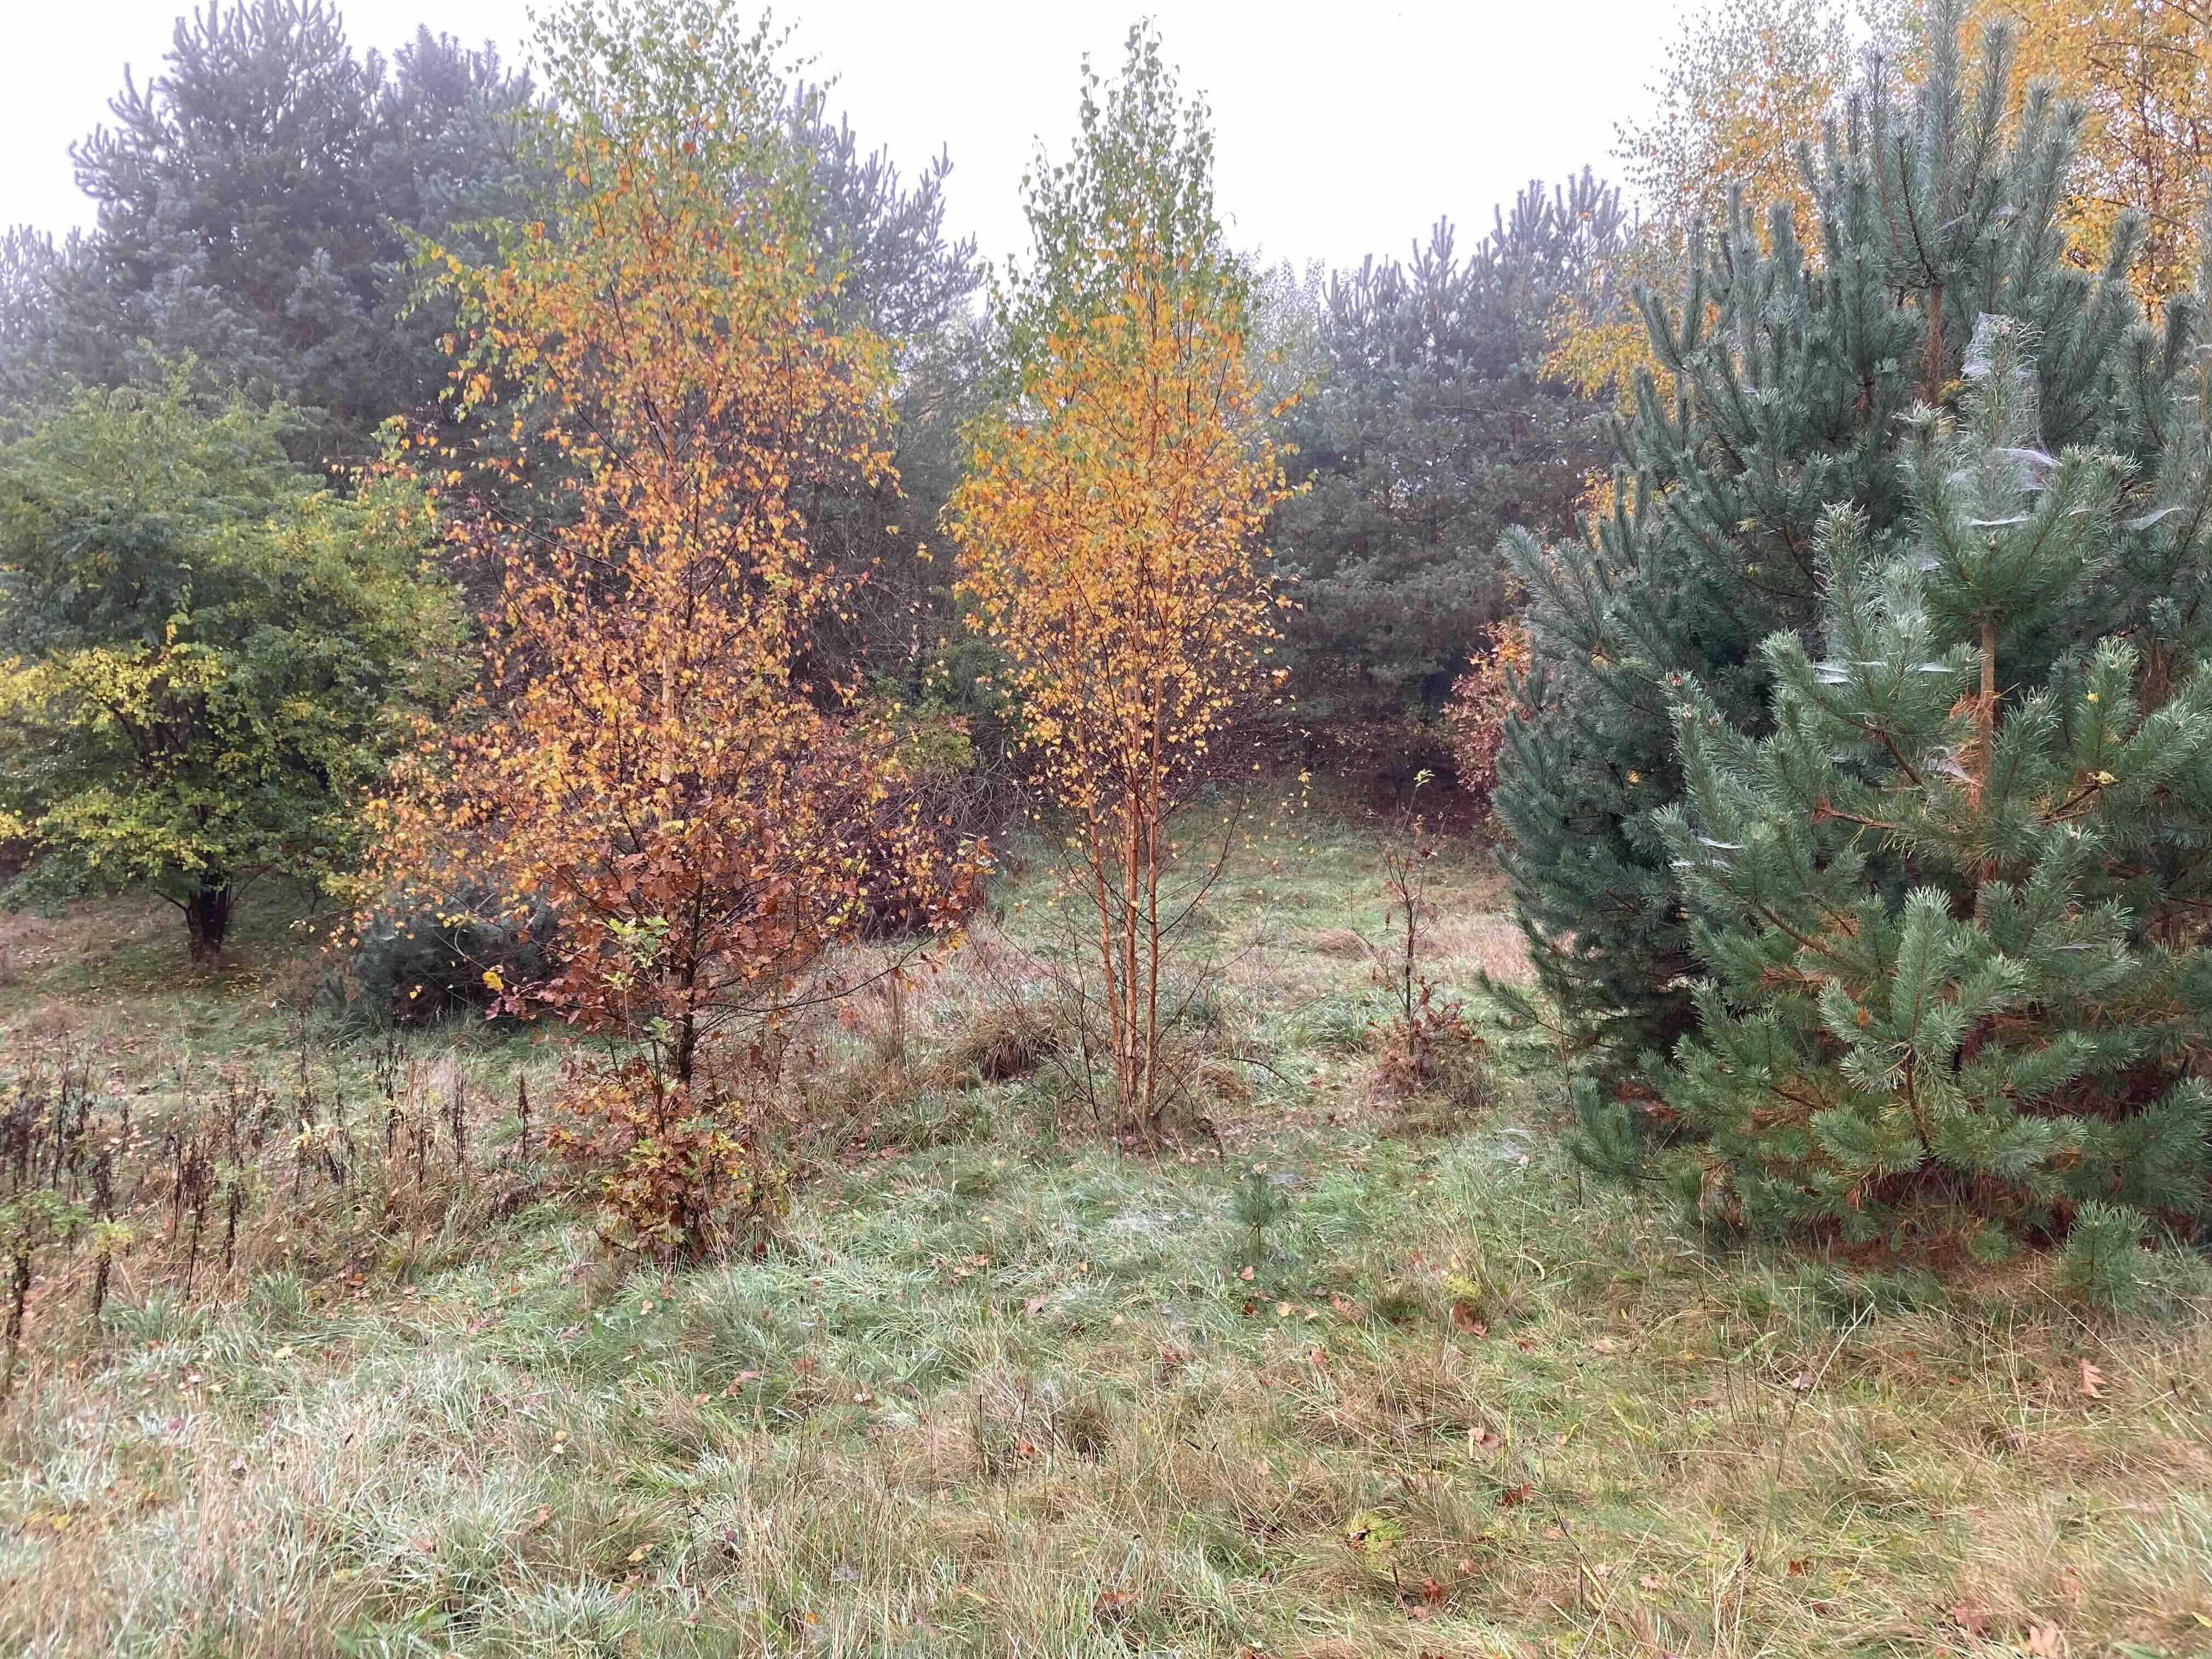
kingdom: Fungi
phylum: Basidiomycota
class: Agaricomycetes
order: Agaricales
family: Pseudoclitocybaceae
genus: Pseudoclitocybe
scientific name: Pseudoclitocybe cyathiformis
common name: almindelig bægertragthat
